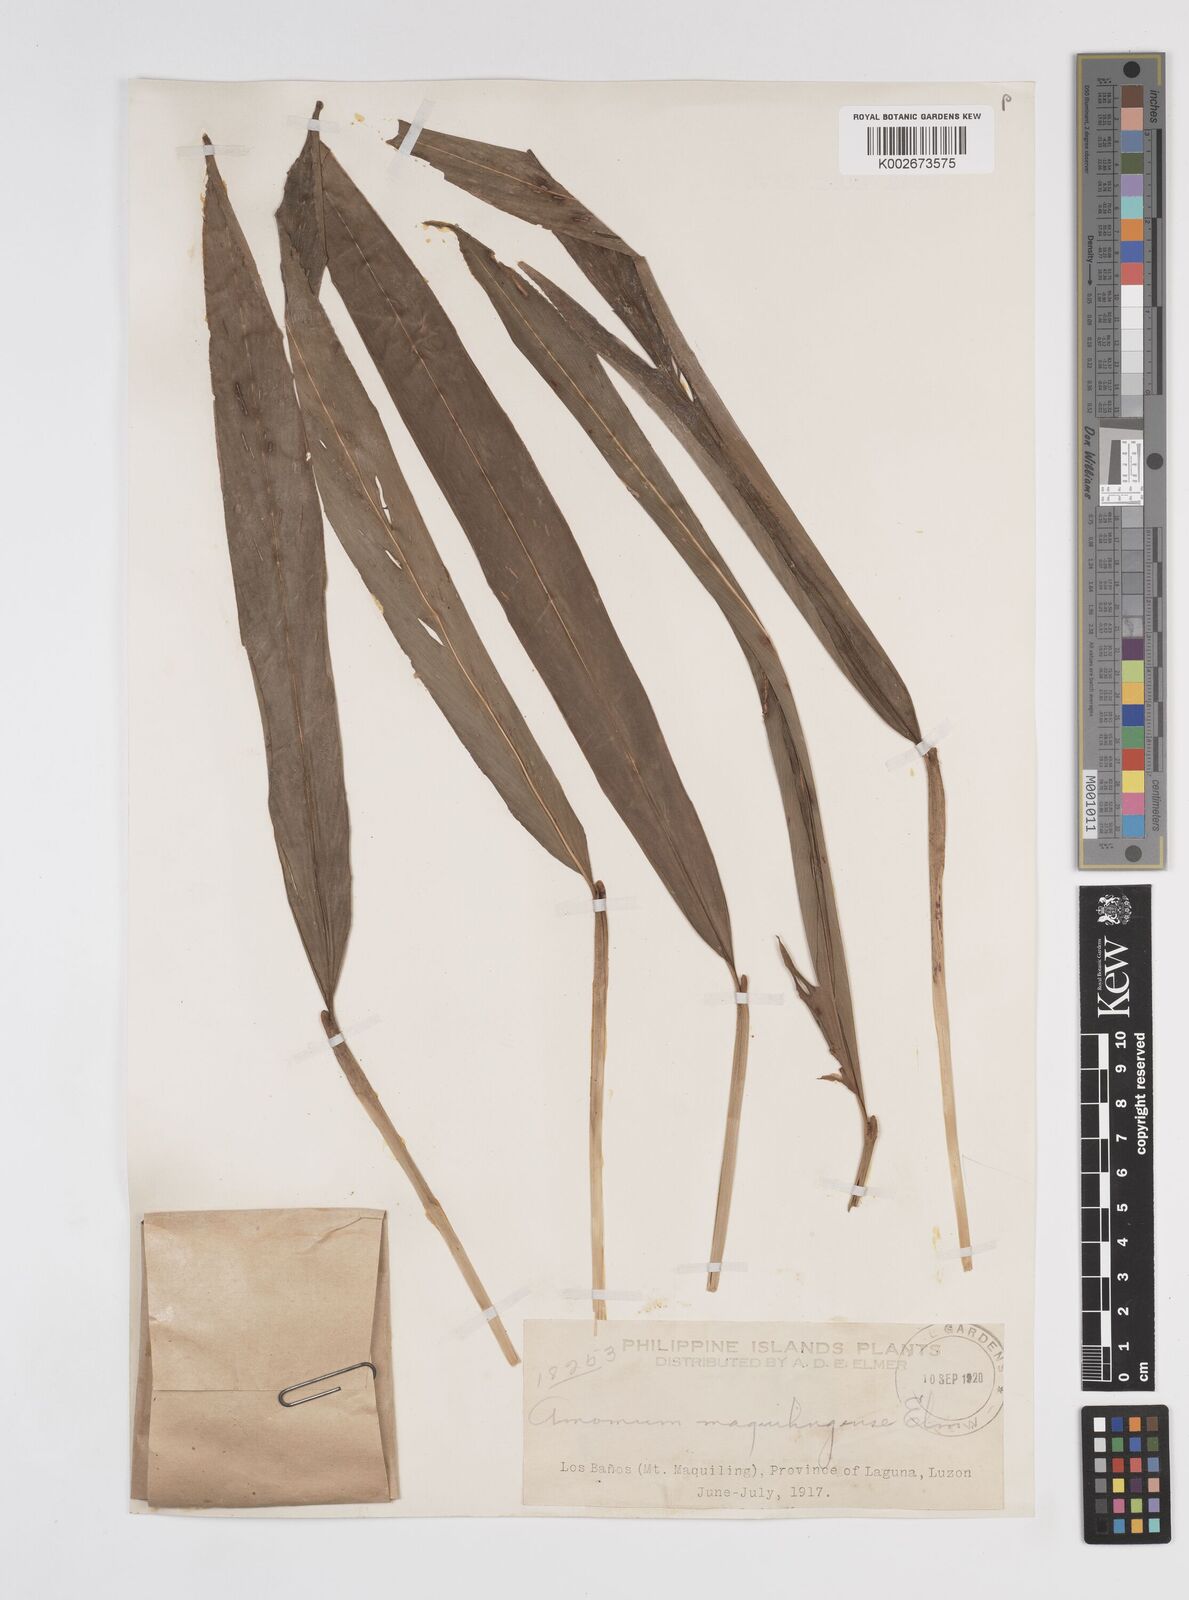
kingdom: Plantae
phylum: Tracheophyta
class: Liliopsida
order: Zingiberales
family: Zingiberaceae
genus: Amomum
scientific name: Amomum
